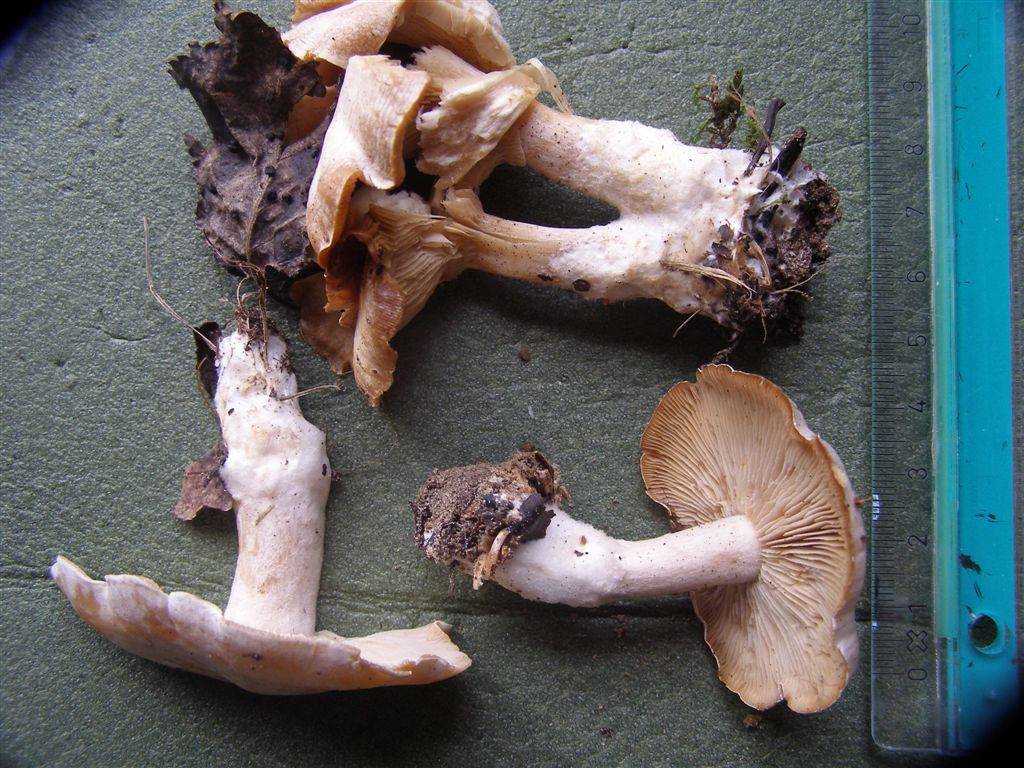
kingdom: Fungi
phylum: Basidiomycota
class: Agaricomycetes
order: Agaricales
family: Tricholomataceae
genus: Clitocybe
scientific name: Clitocybe phyllophila
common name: løv-tragthat
